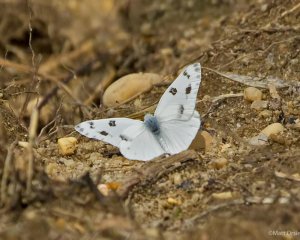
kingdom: Animalia
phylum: Arthropoda
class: Insecta
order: Lepidoptera
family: Pieridae
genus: Pontia
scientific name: Pontia protodice
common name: Checkered White
